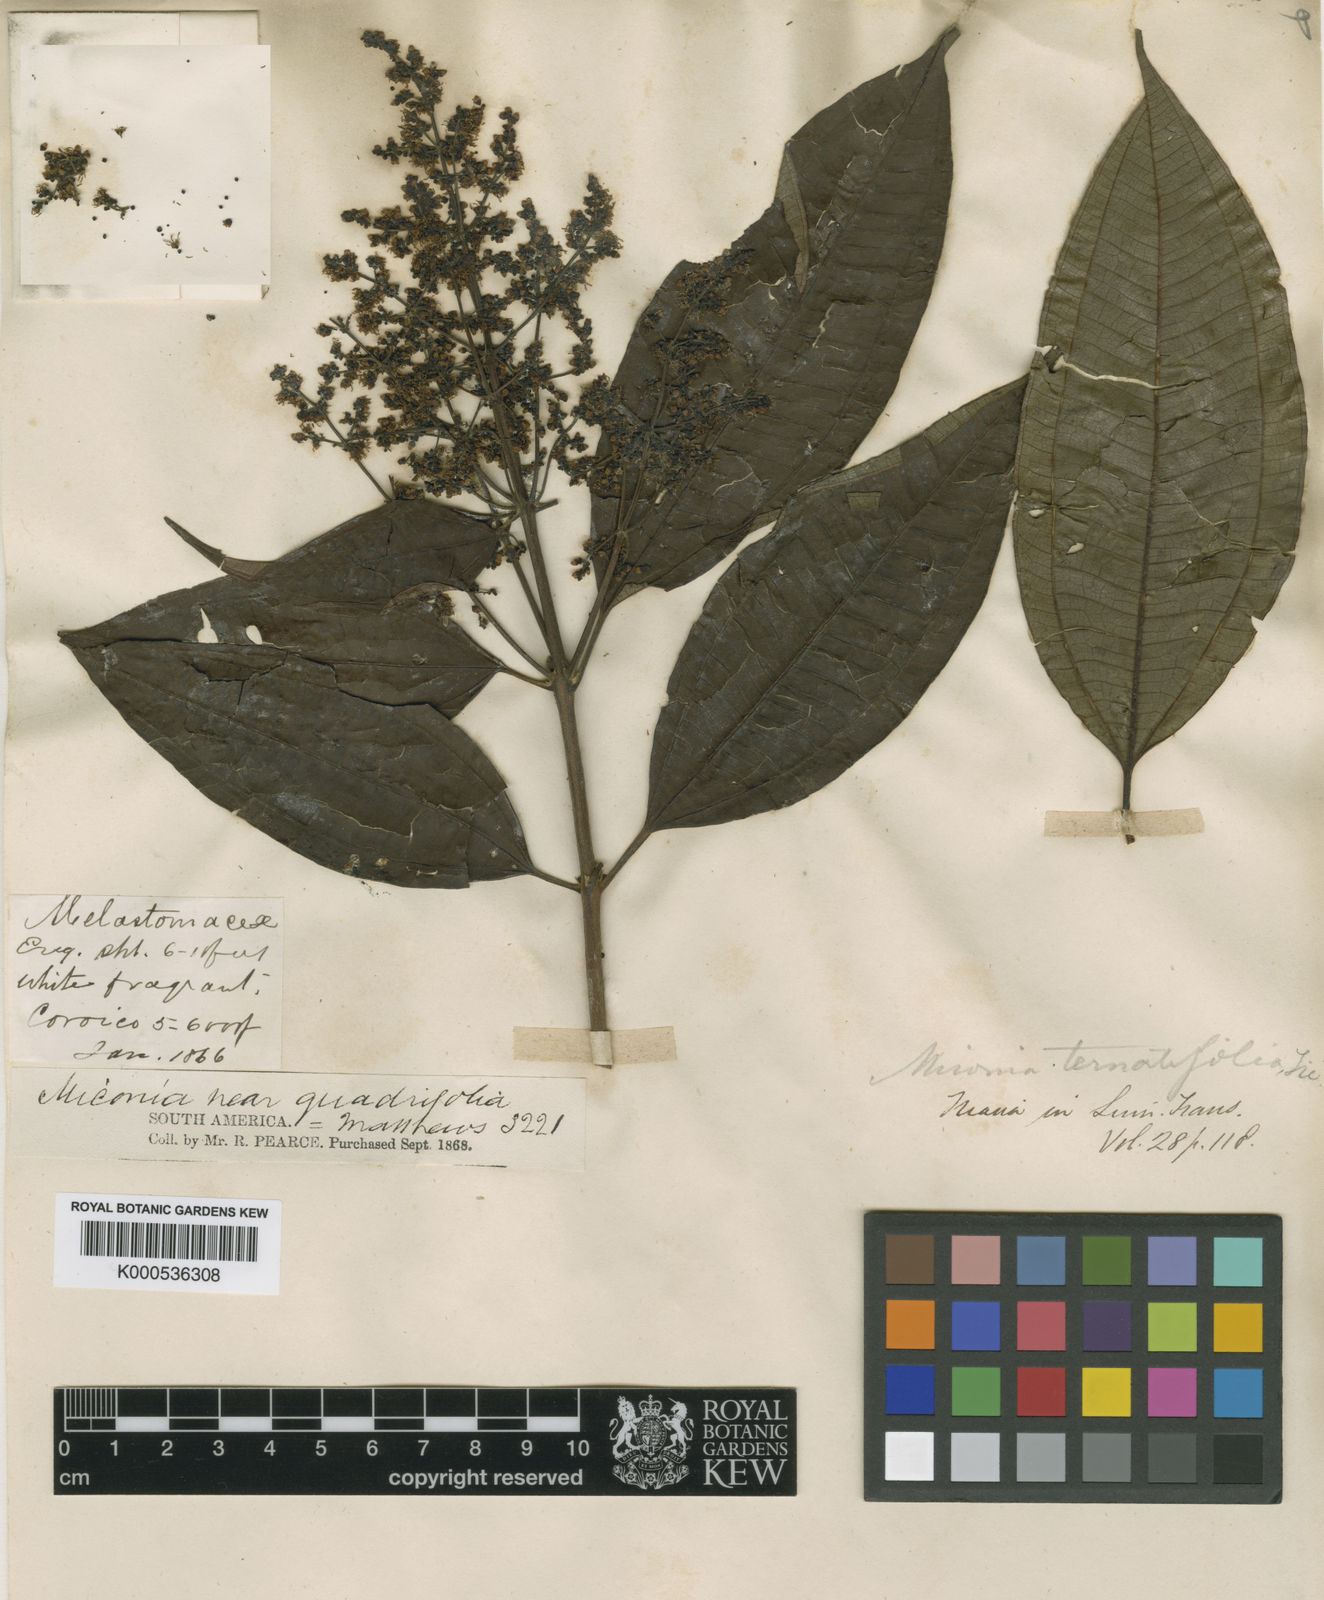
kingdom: Plantae
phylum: Tracheophyta
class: Magnoliopsida
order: Myrtales
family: Melastomataceae
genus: Miconia
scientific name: Miconia ternatifolia
